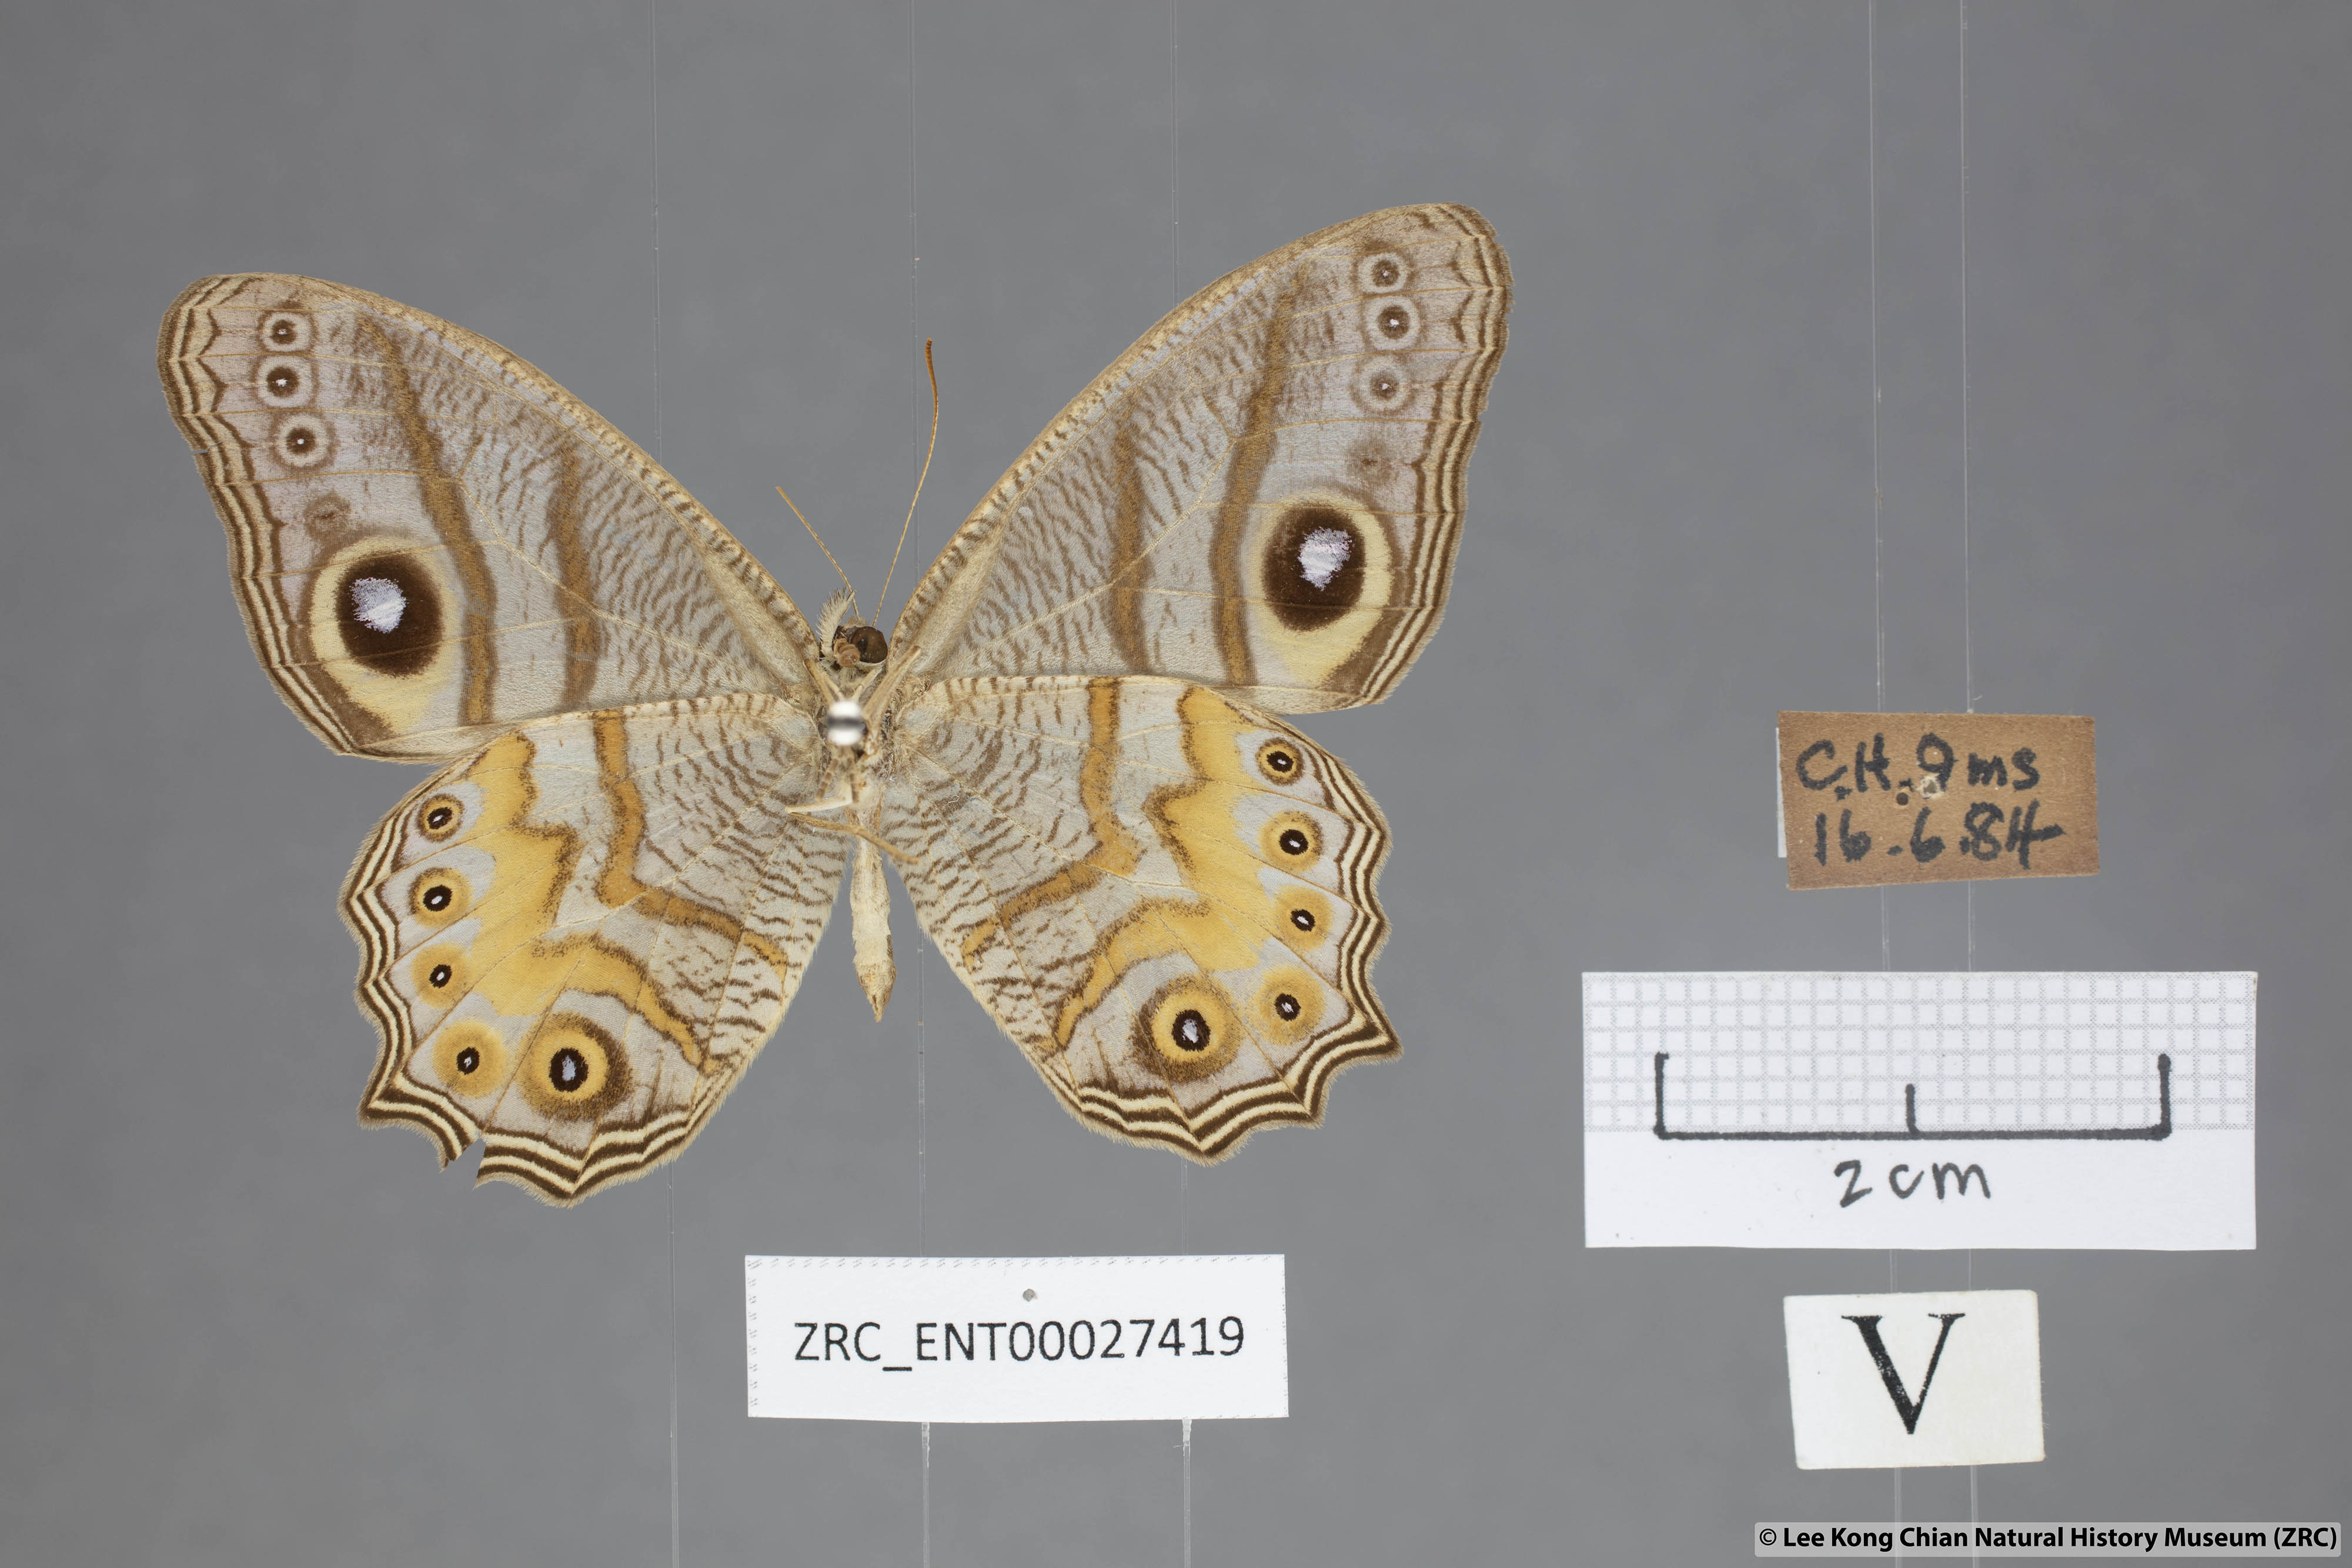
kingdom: Animalia
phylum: Arthropoda
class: Insecta
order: Lepidoptera
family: Nymphalidae
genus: Erites
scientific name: Erites angularis
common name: Angled cyclops
